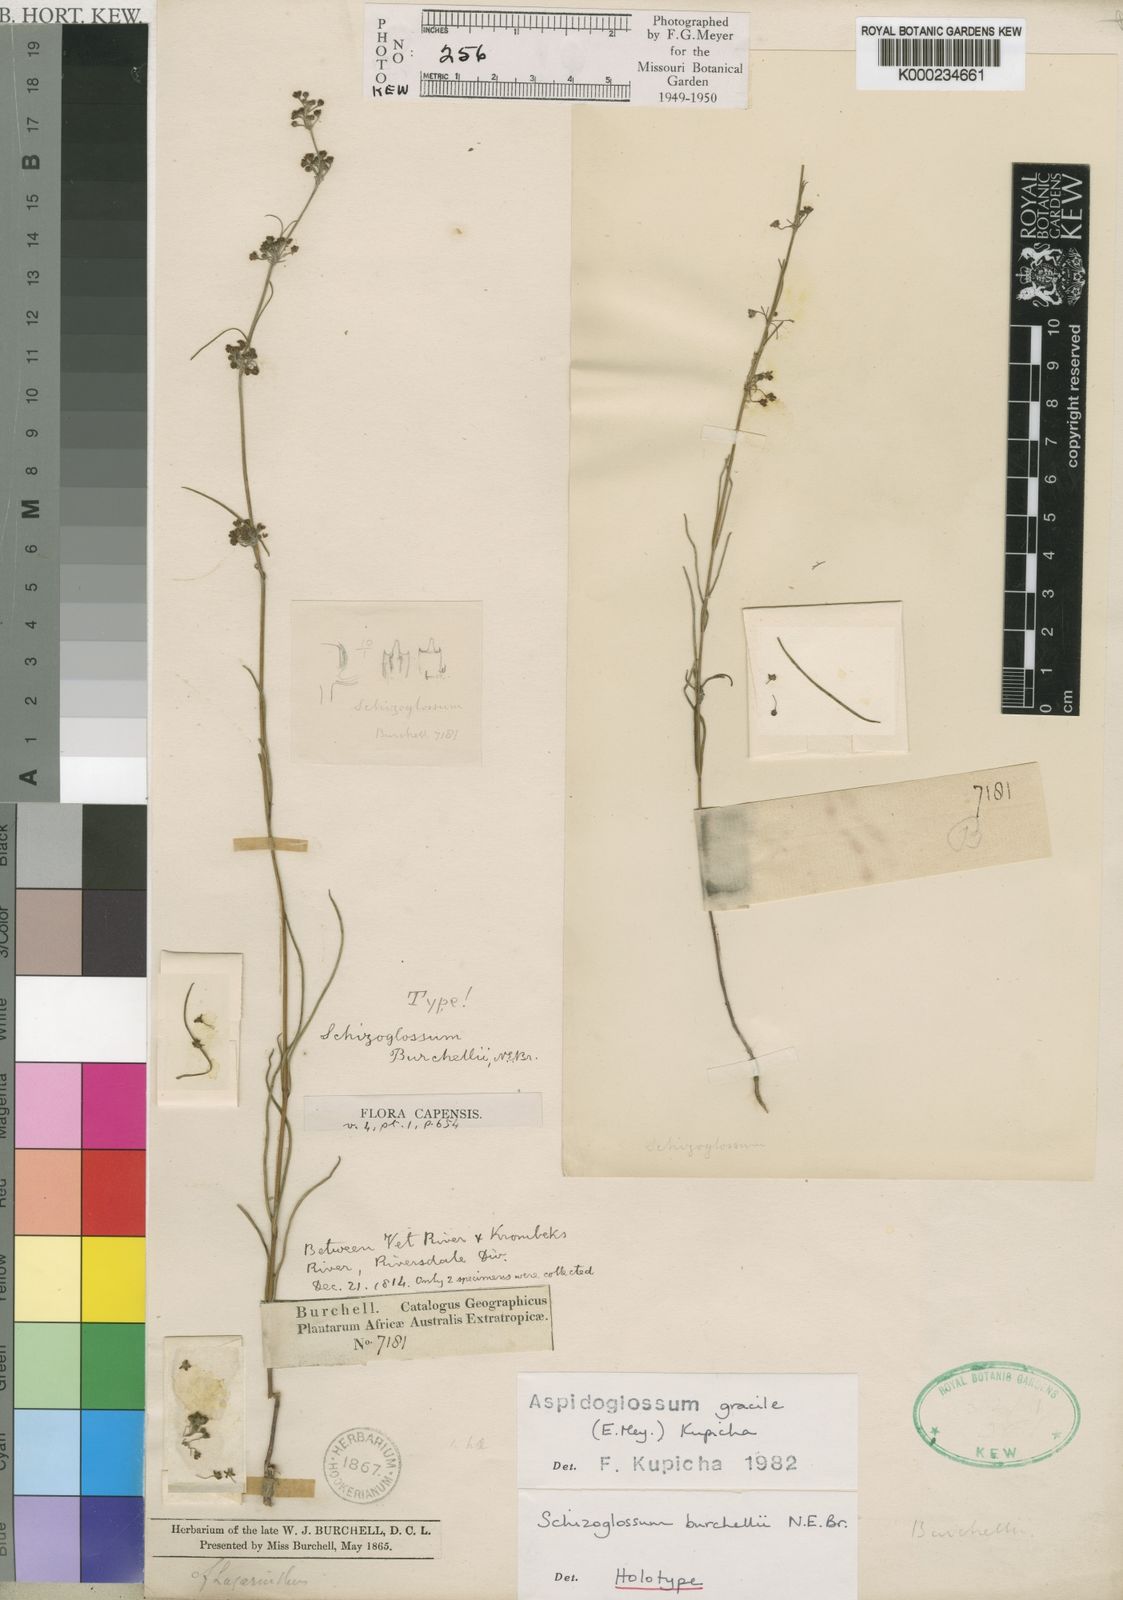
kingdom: Plantae
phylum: Tracheophyta
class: Magnoliopsida
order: Gentianales
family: Apocynaceae
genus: Aspidoglossum
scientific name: Aspidoglossum gracile
